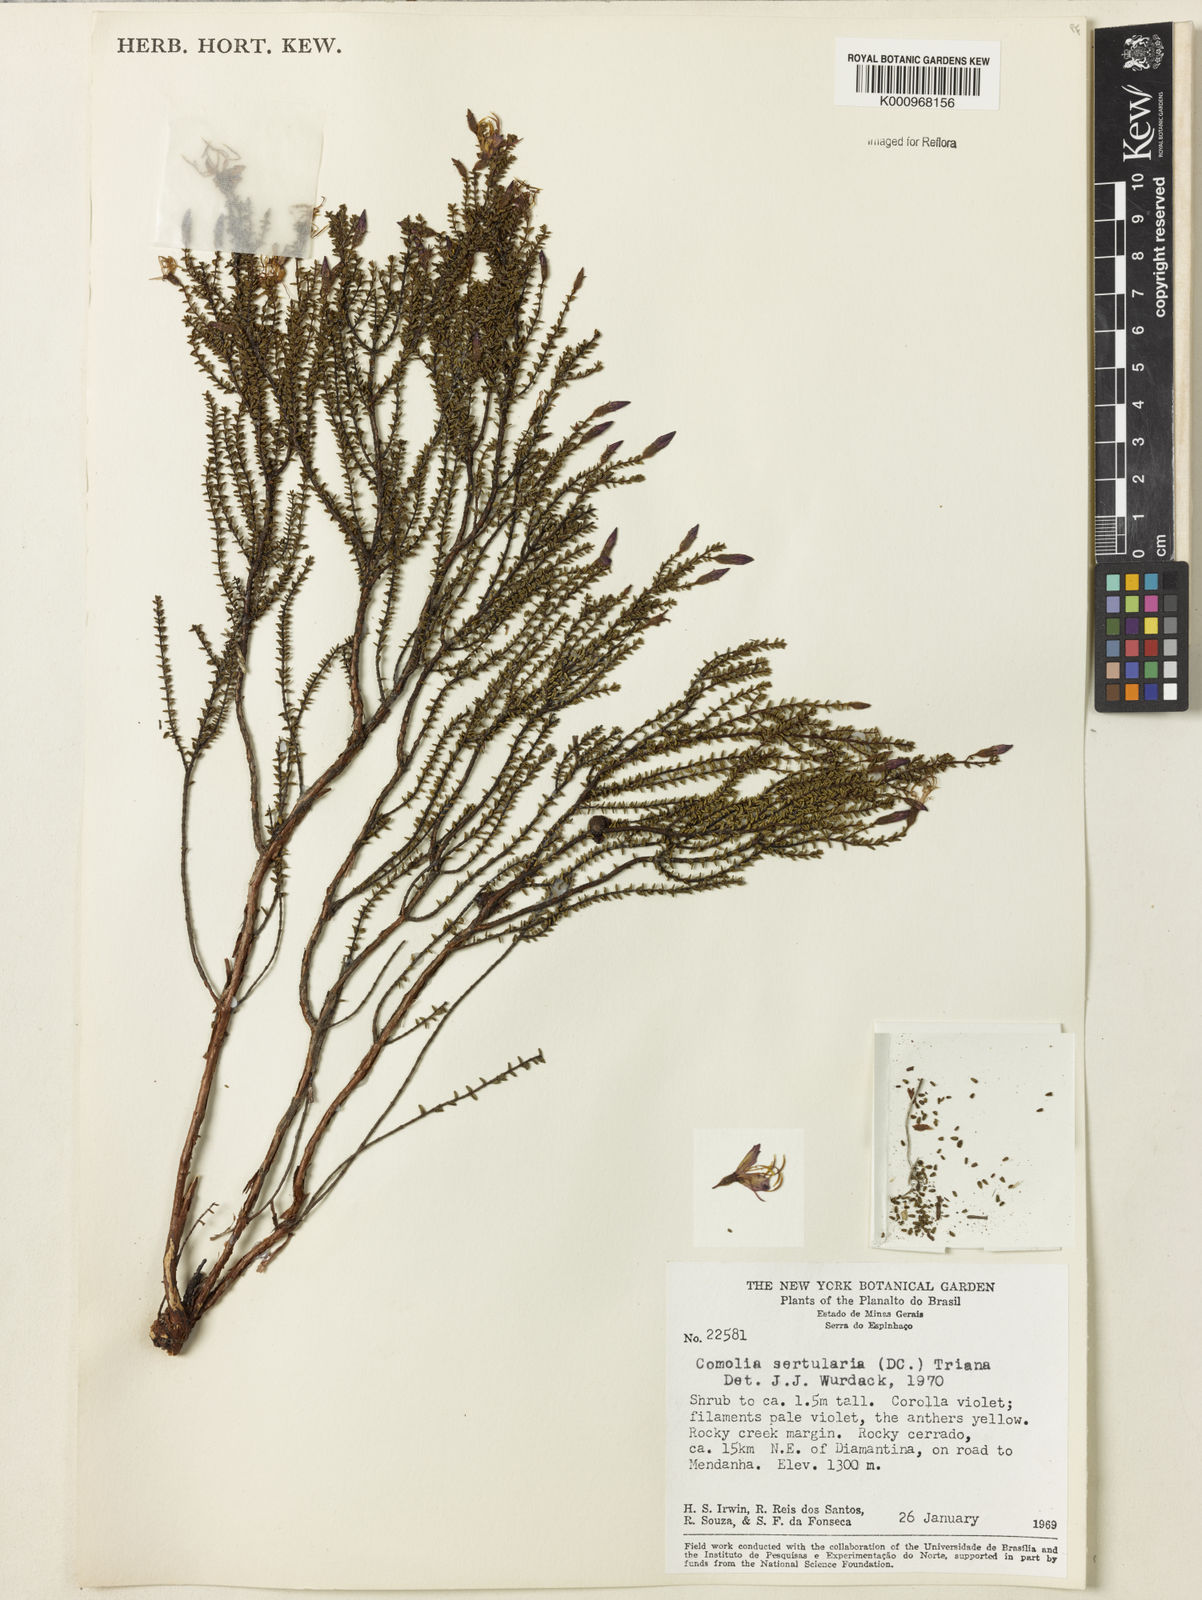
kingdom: Plantae
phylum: Tracheophyta
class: Magnoliopsida
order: Myrtales
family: Melastomataceae
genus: Fritzschia
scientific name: Fritzschia sertularia
